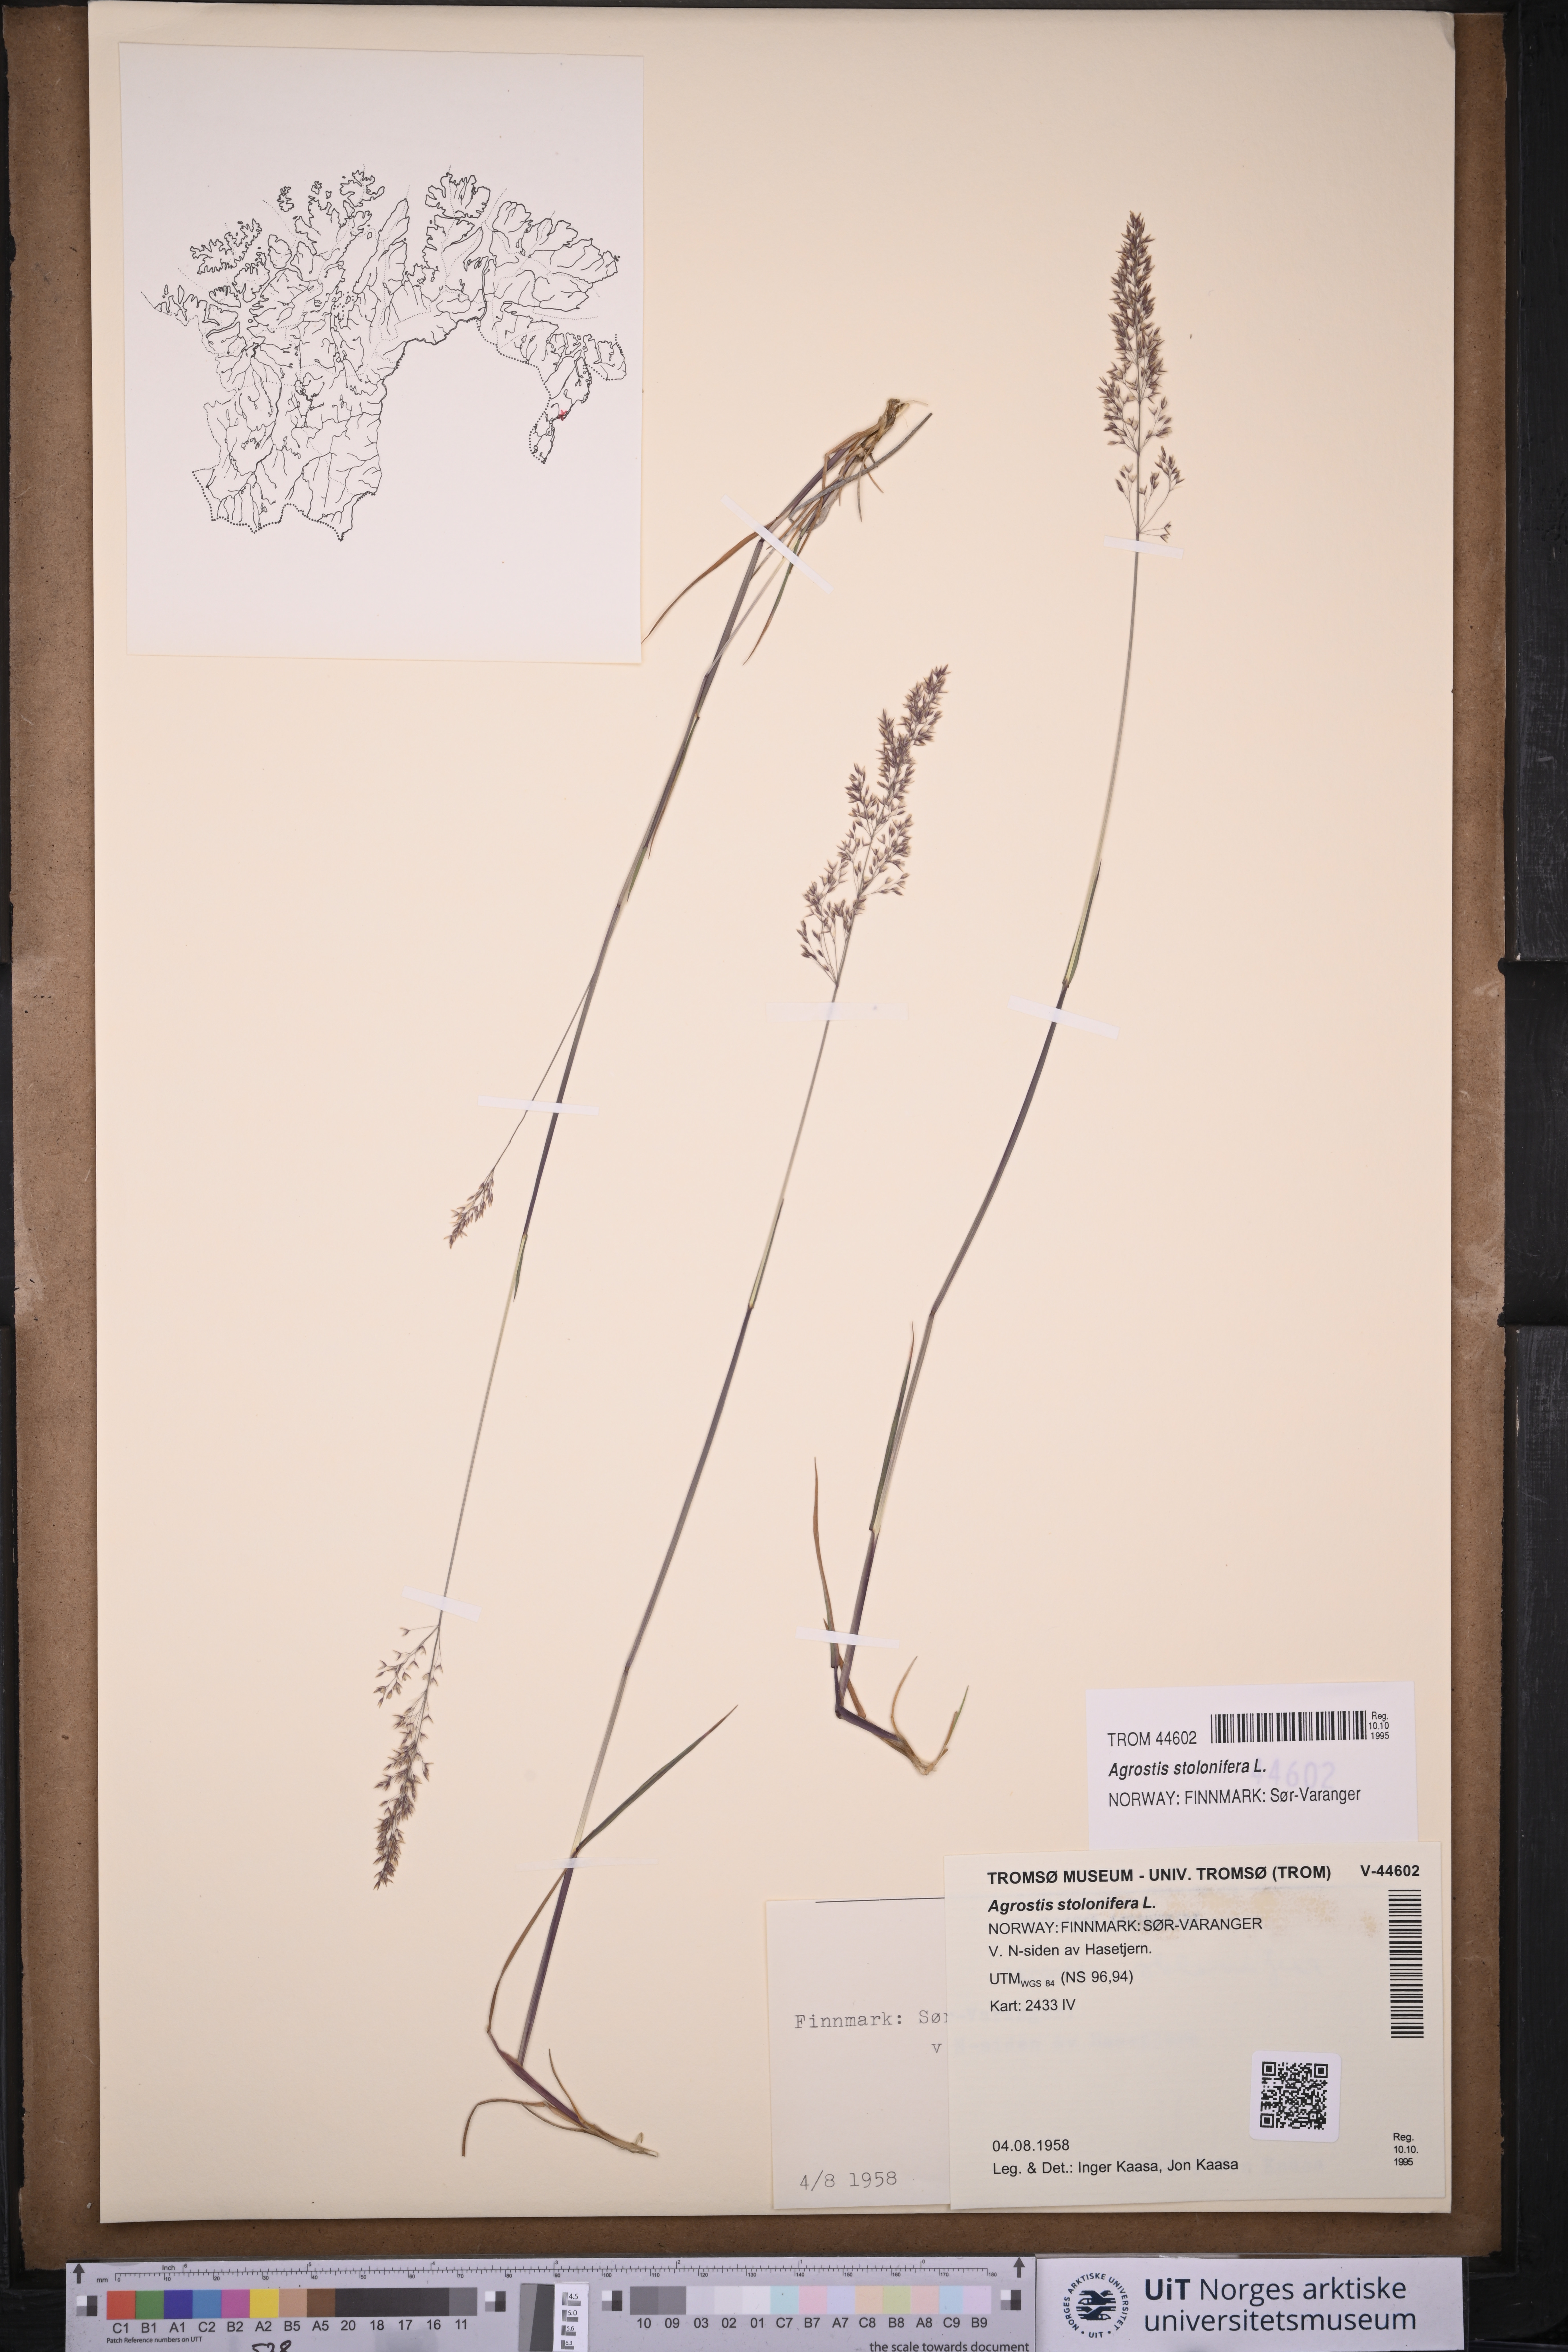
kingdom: Plantae
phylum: Tracheophyta
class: Liliopsida
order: Poales
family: Poaceae
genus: Agrostis
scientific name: Agrostis stolonifera
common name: Creeping bentgrass
